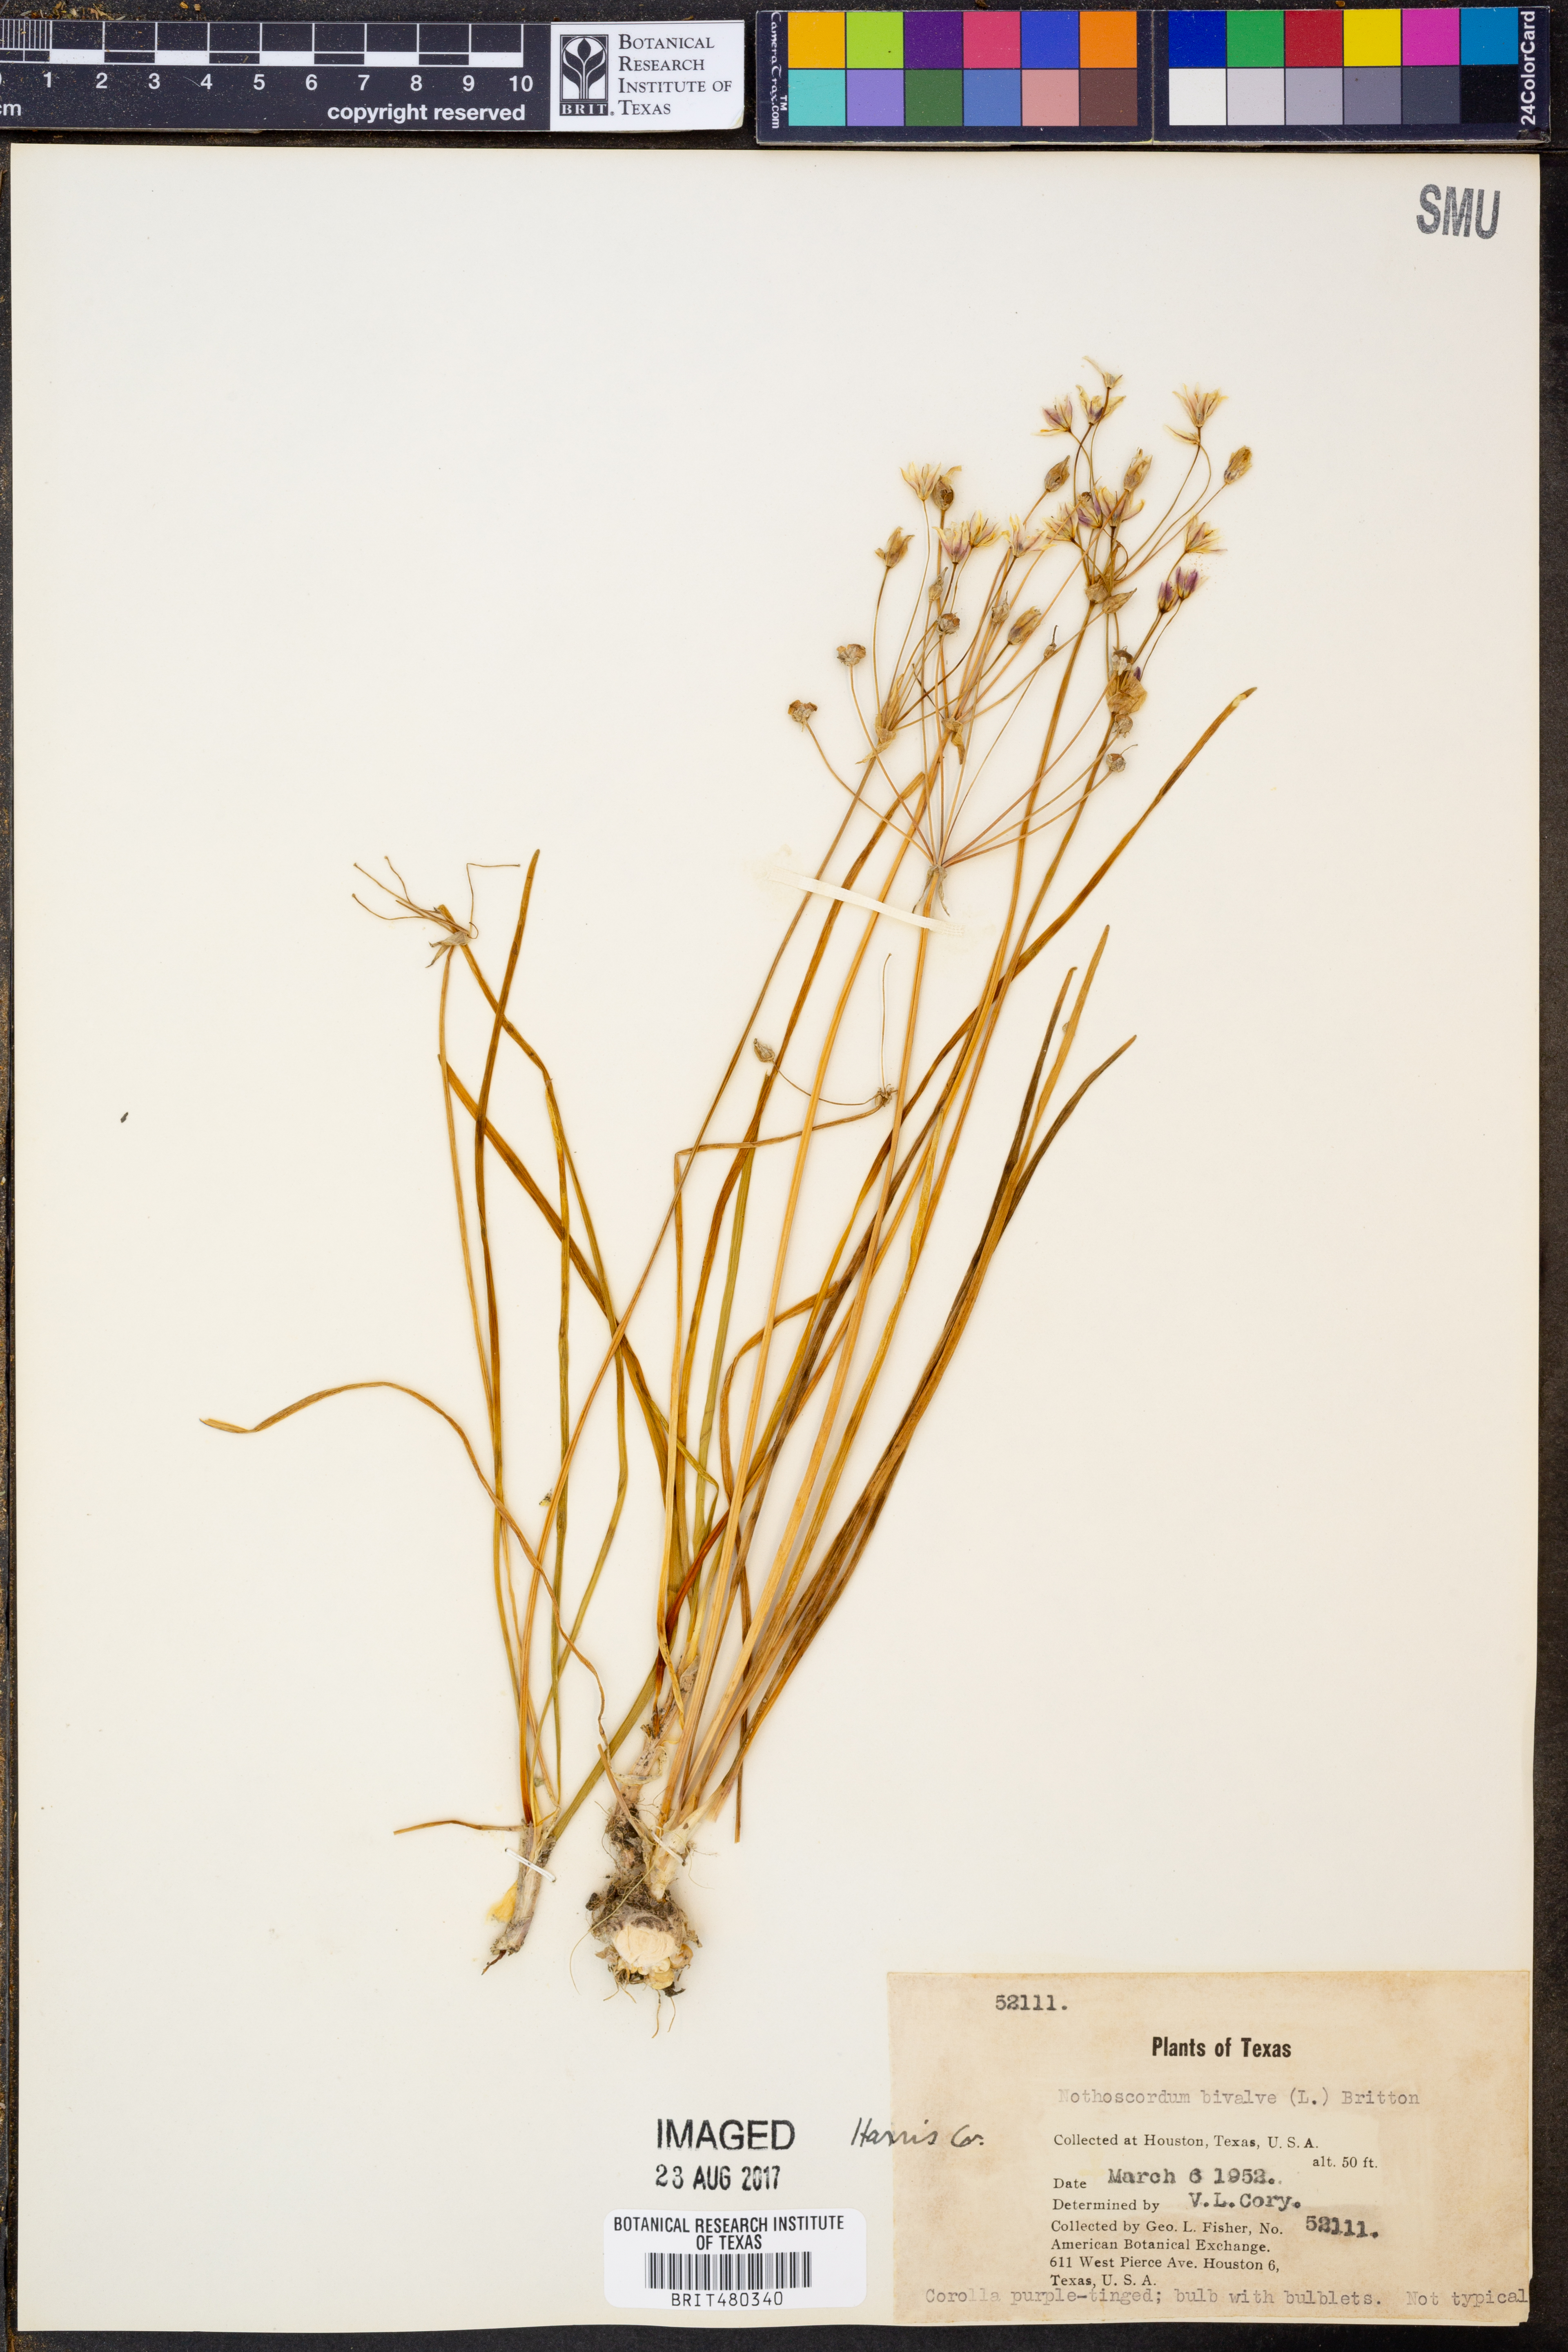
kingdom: Plantae
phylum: Tracheophyta
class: Liliopsida
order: Asparagales
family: Amaryllidaceae
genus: Nothoscordum
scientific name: Nothoscordum bivalve
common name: Crow-poison
